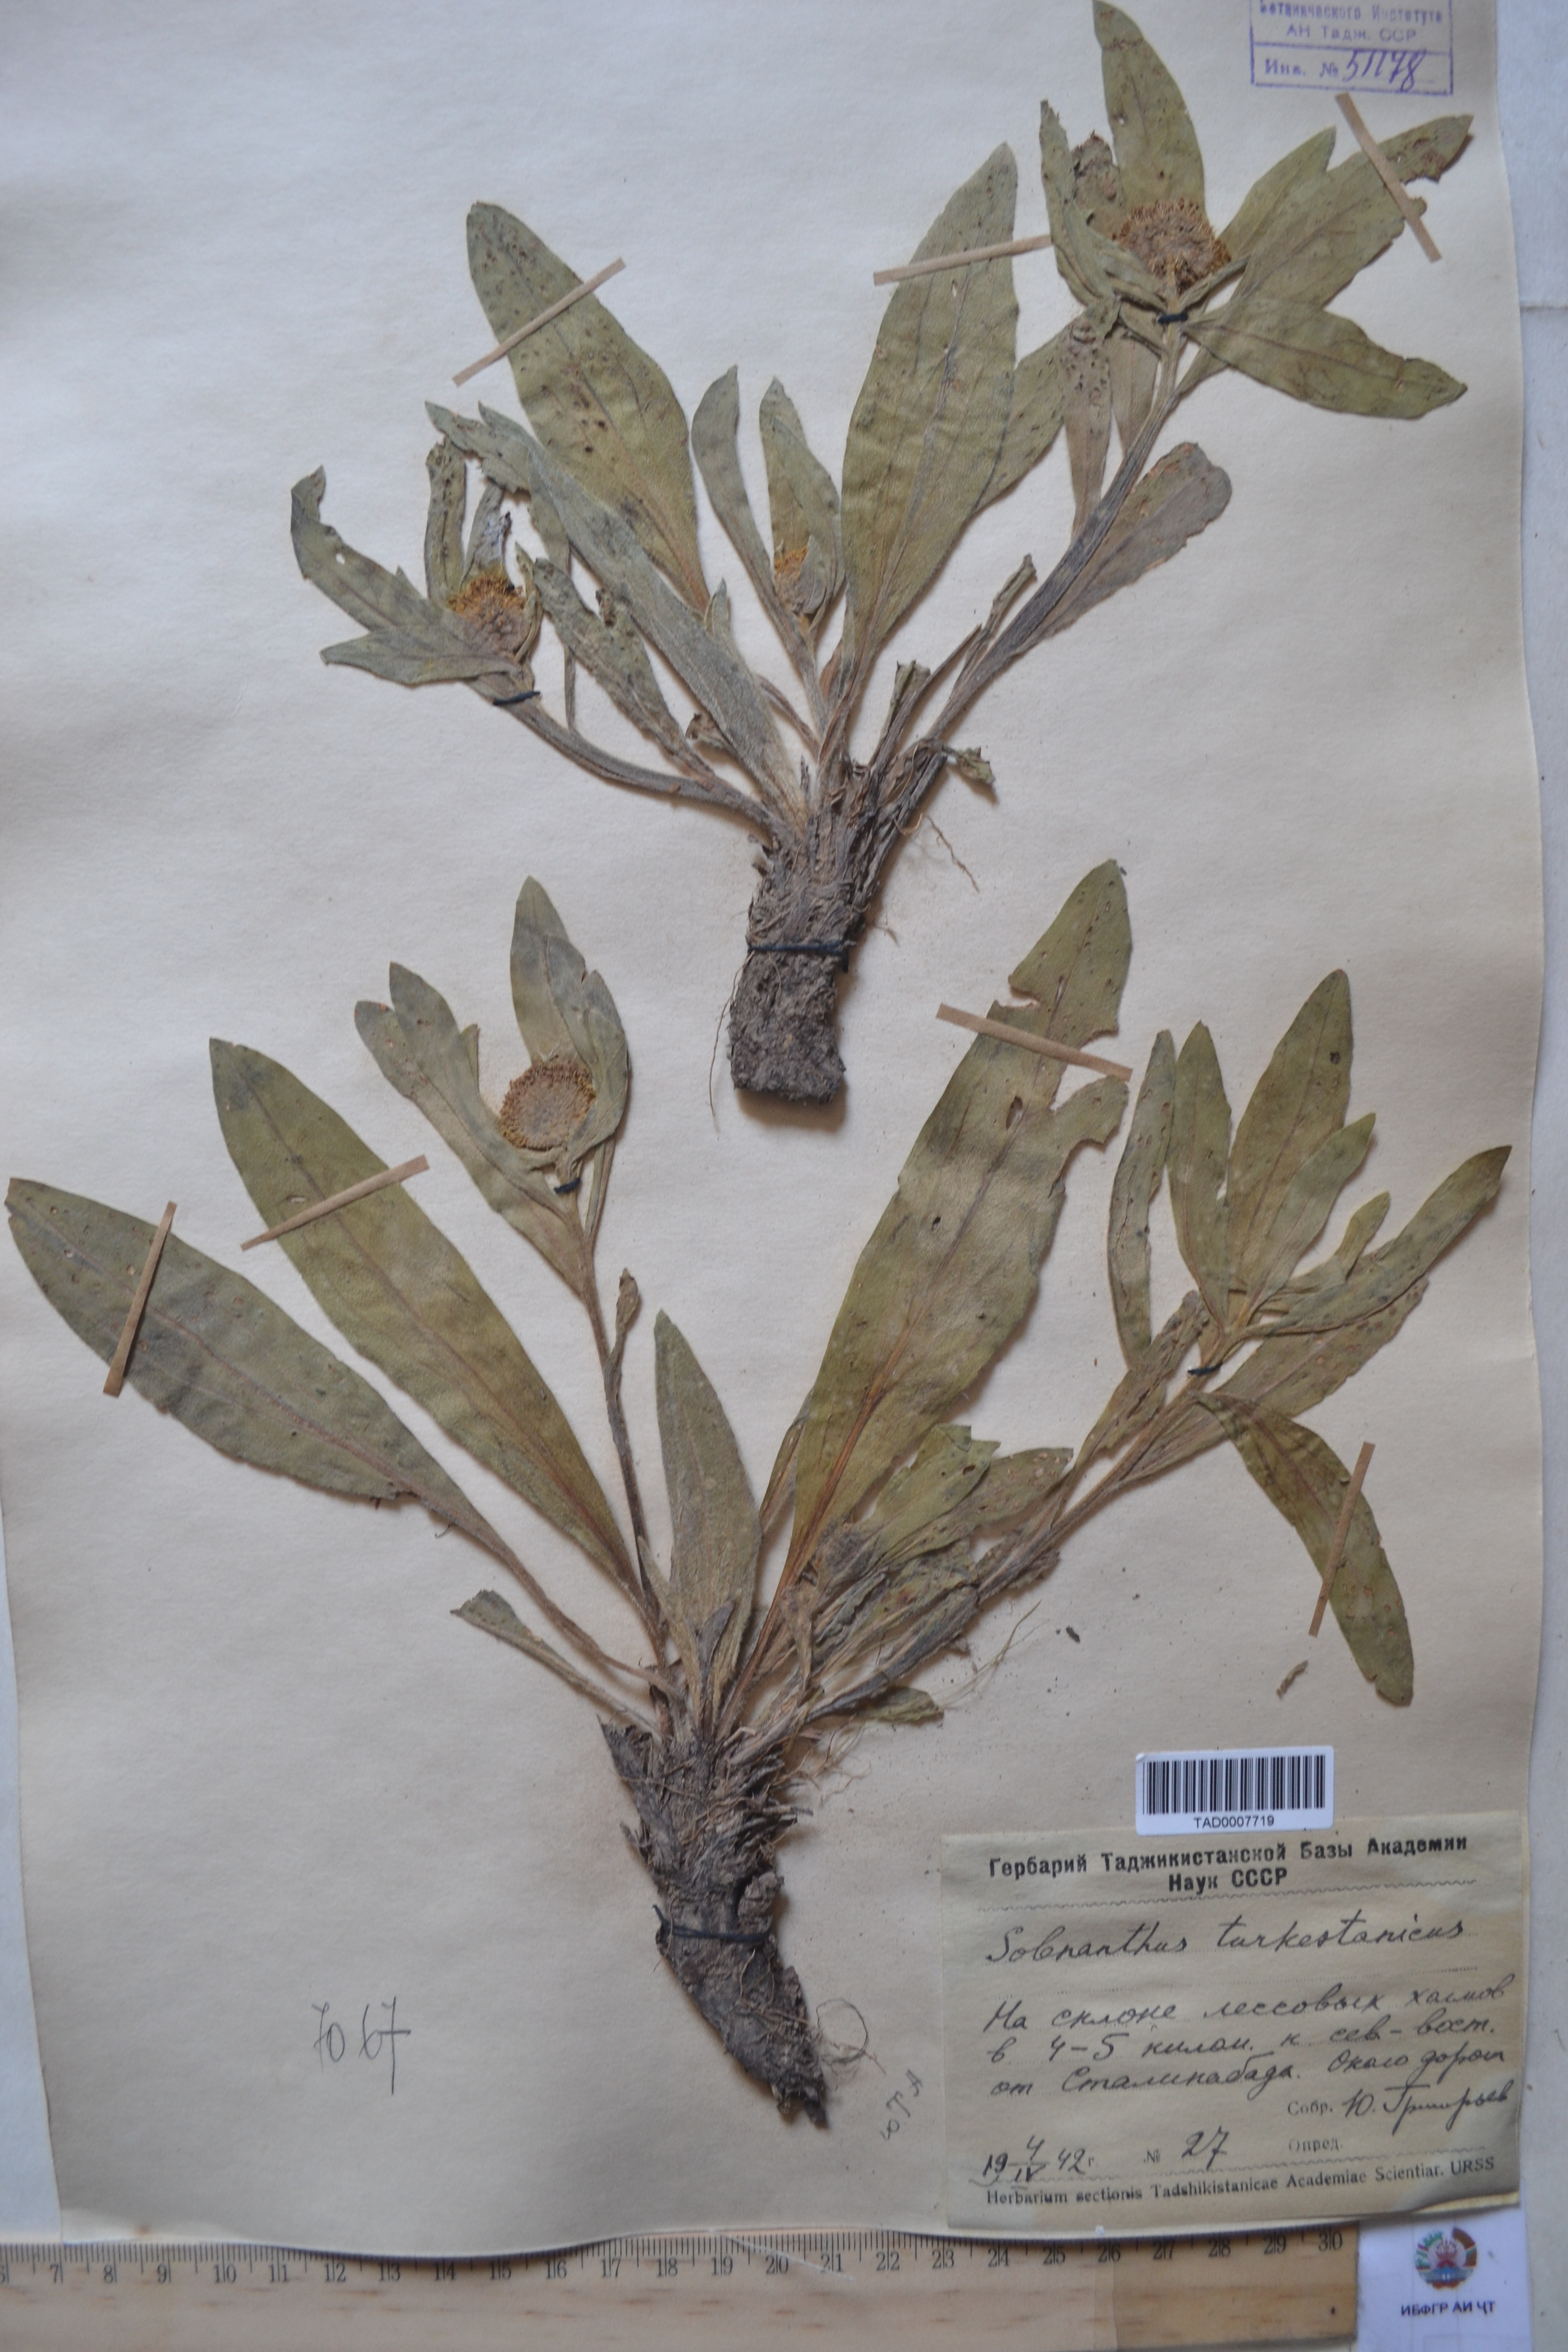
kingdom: Plantae
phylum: Tracheophyta
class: Magnoliopsida
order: Boraginales
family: Boraginaceae
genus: Solenanthus
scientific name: Solenanthus turkestanicus
